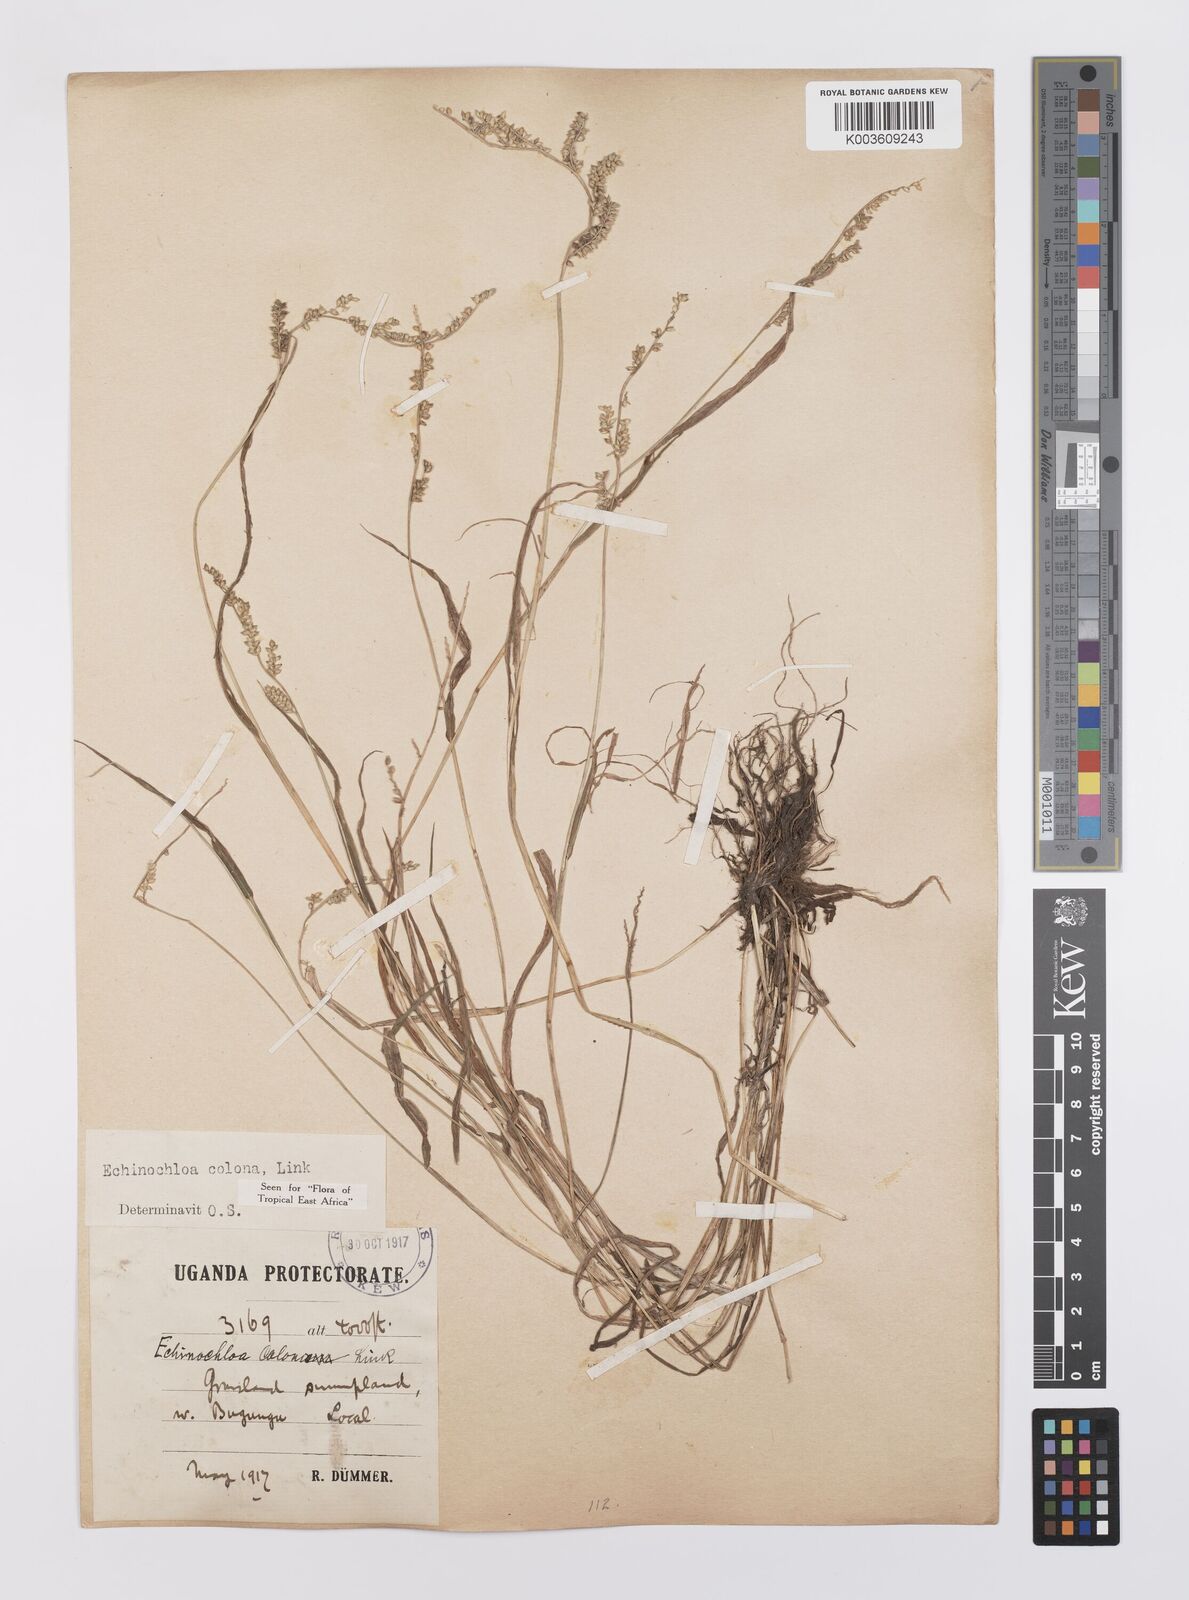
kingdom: Plantae
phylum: Tracheophyta
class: Liliopsida
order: Poales
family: Poaceae
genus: Echinochloa
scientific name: Echinochloa colonum
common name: Jungle rice
